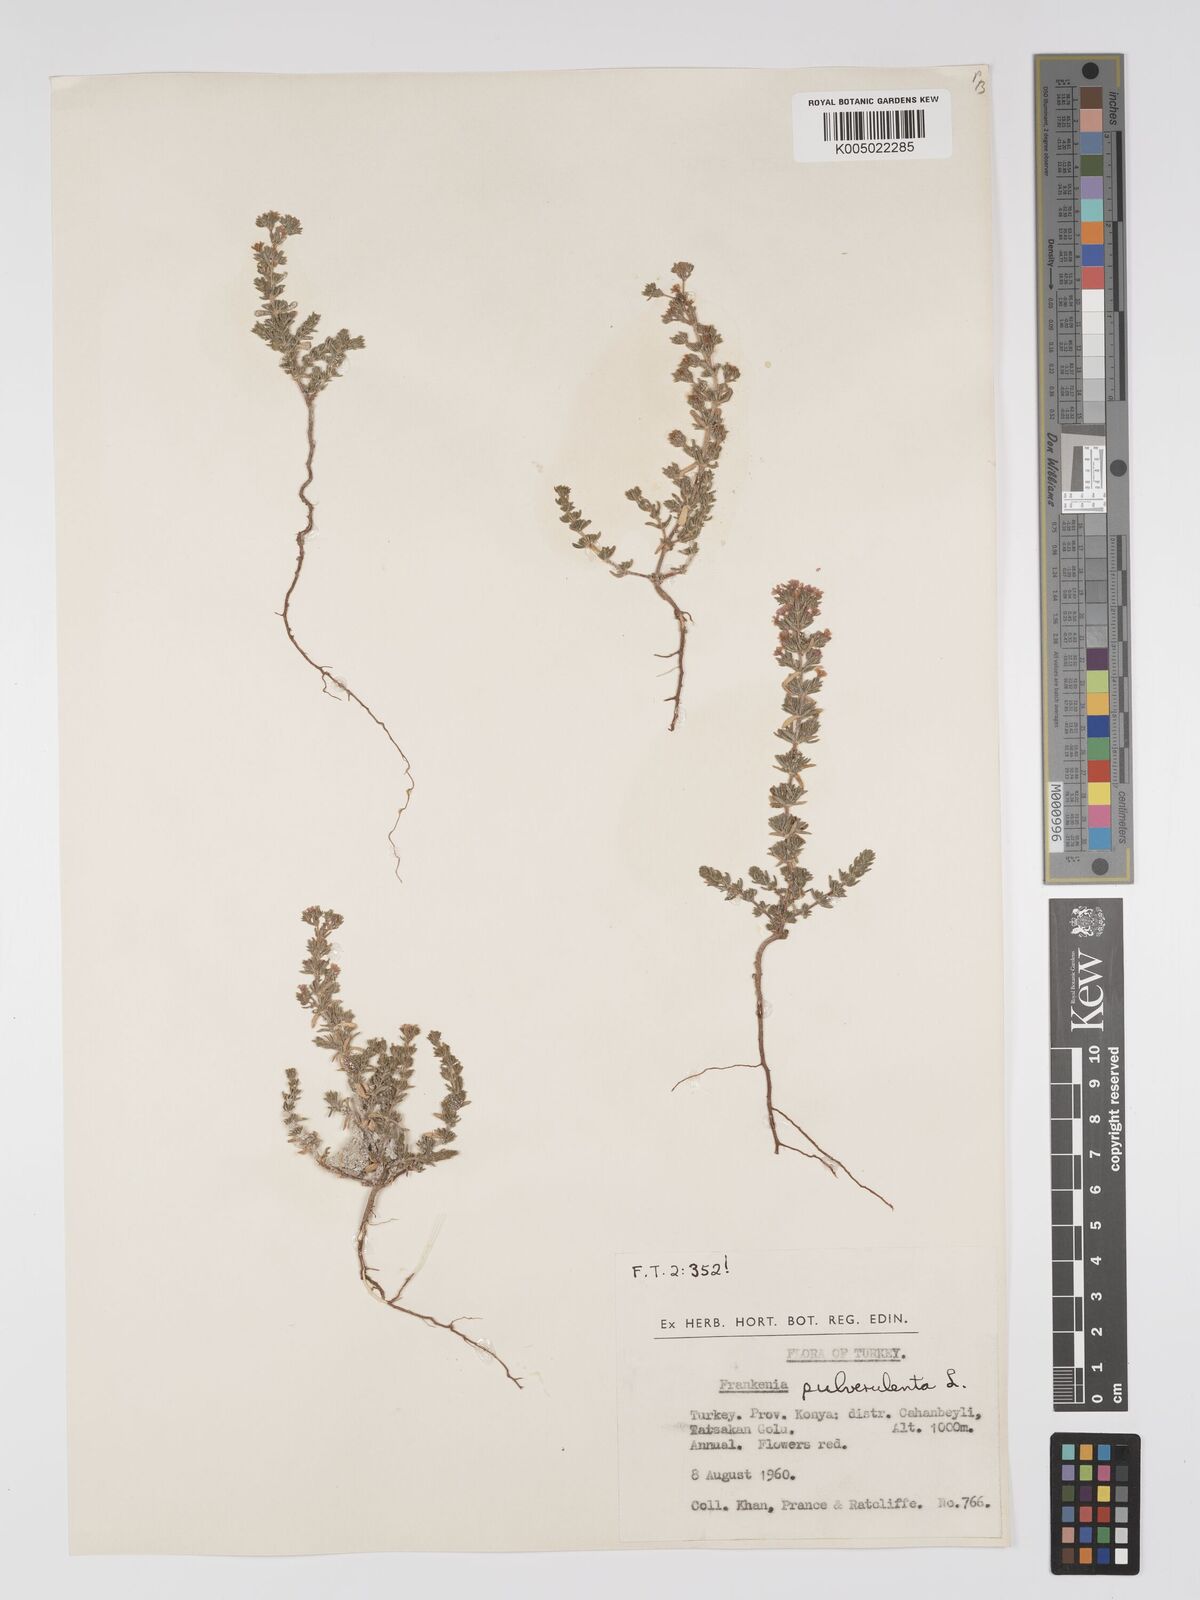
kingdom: Plantae
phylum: Tracheophyta
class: Magnoliopsida
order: Caryophyllales
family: Frankeniaceae
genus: Frankenia
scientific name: Frankenia pulverulenta
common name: European seaheath
